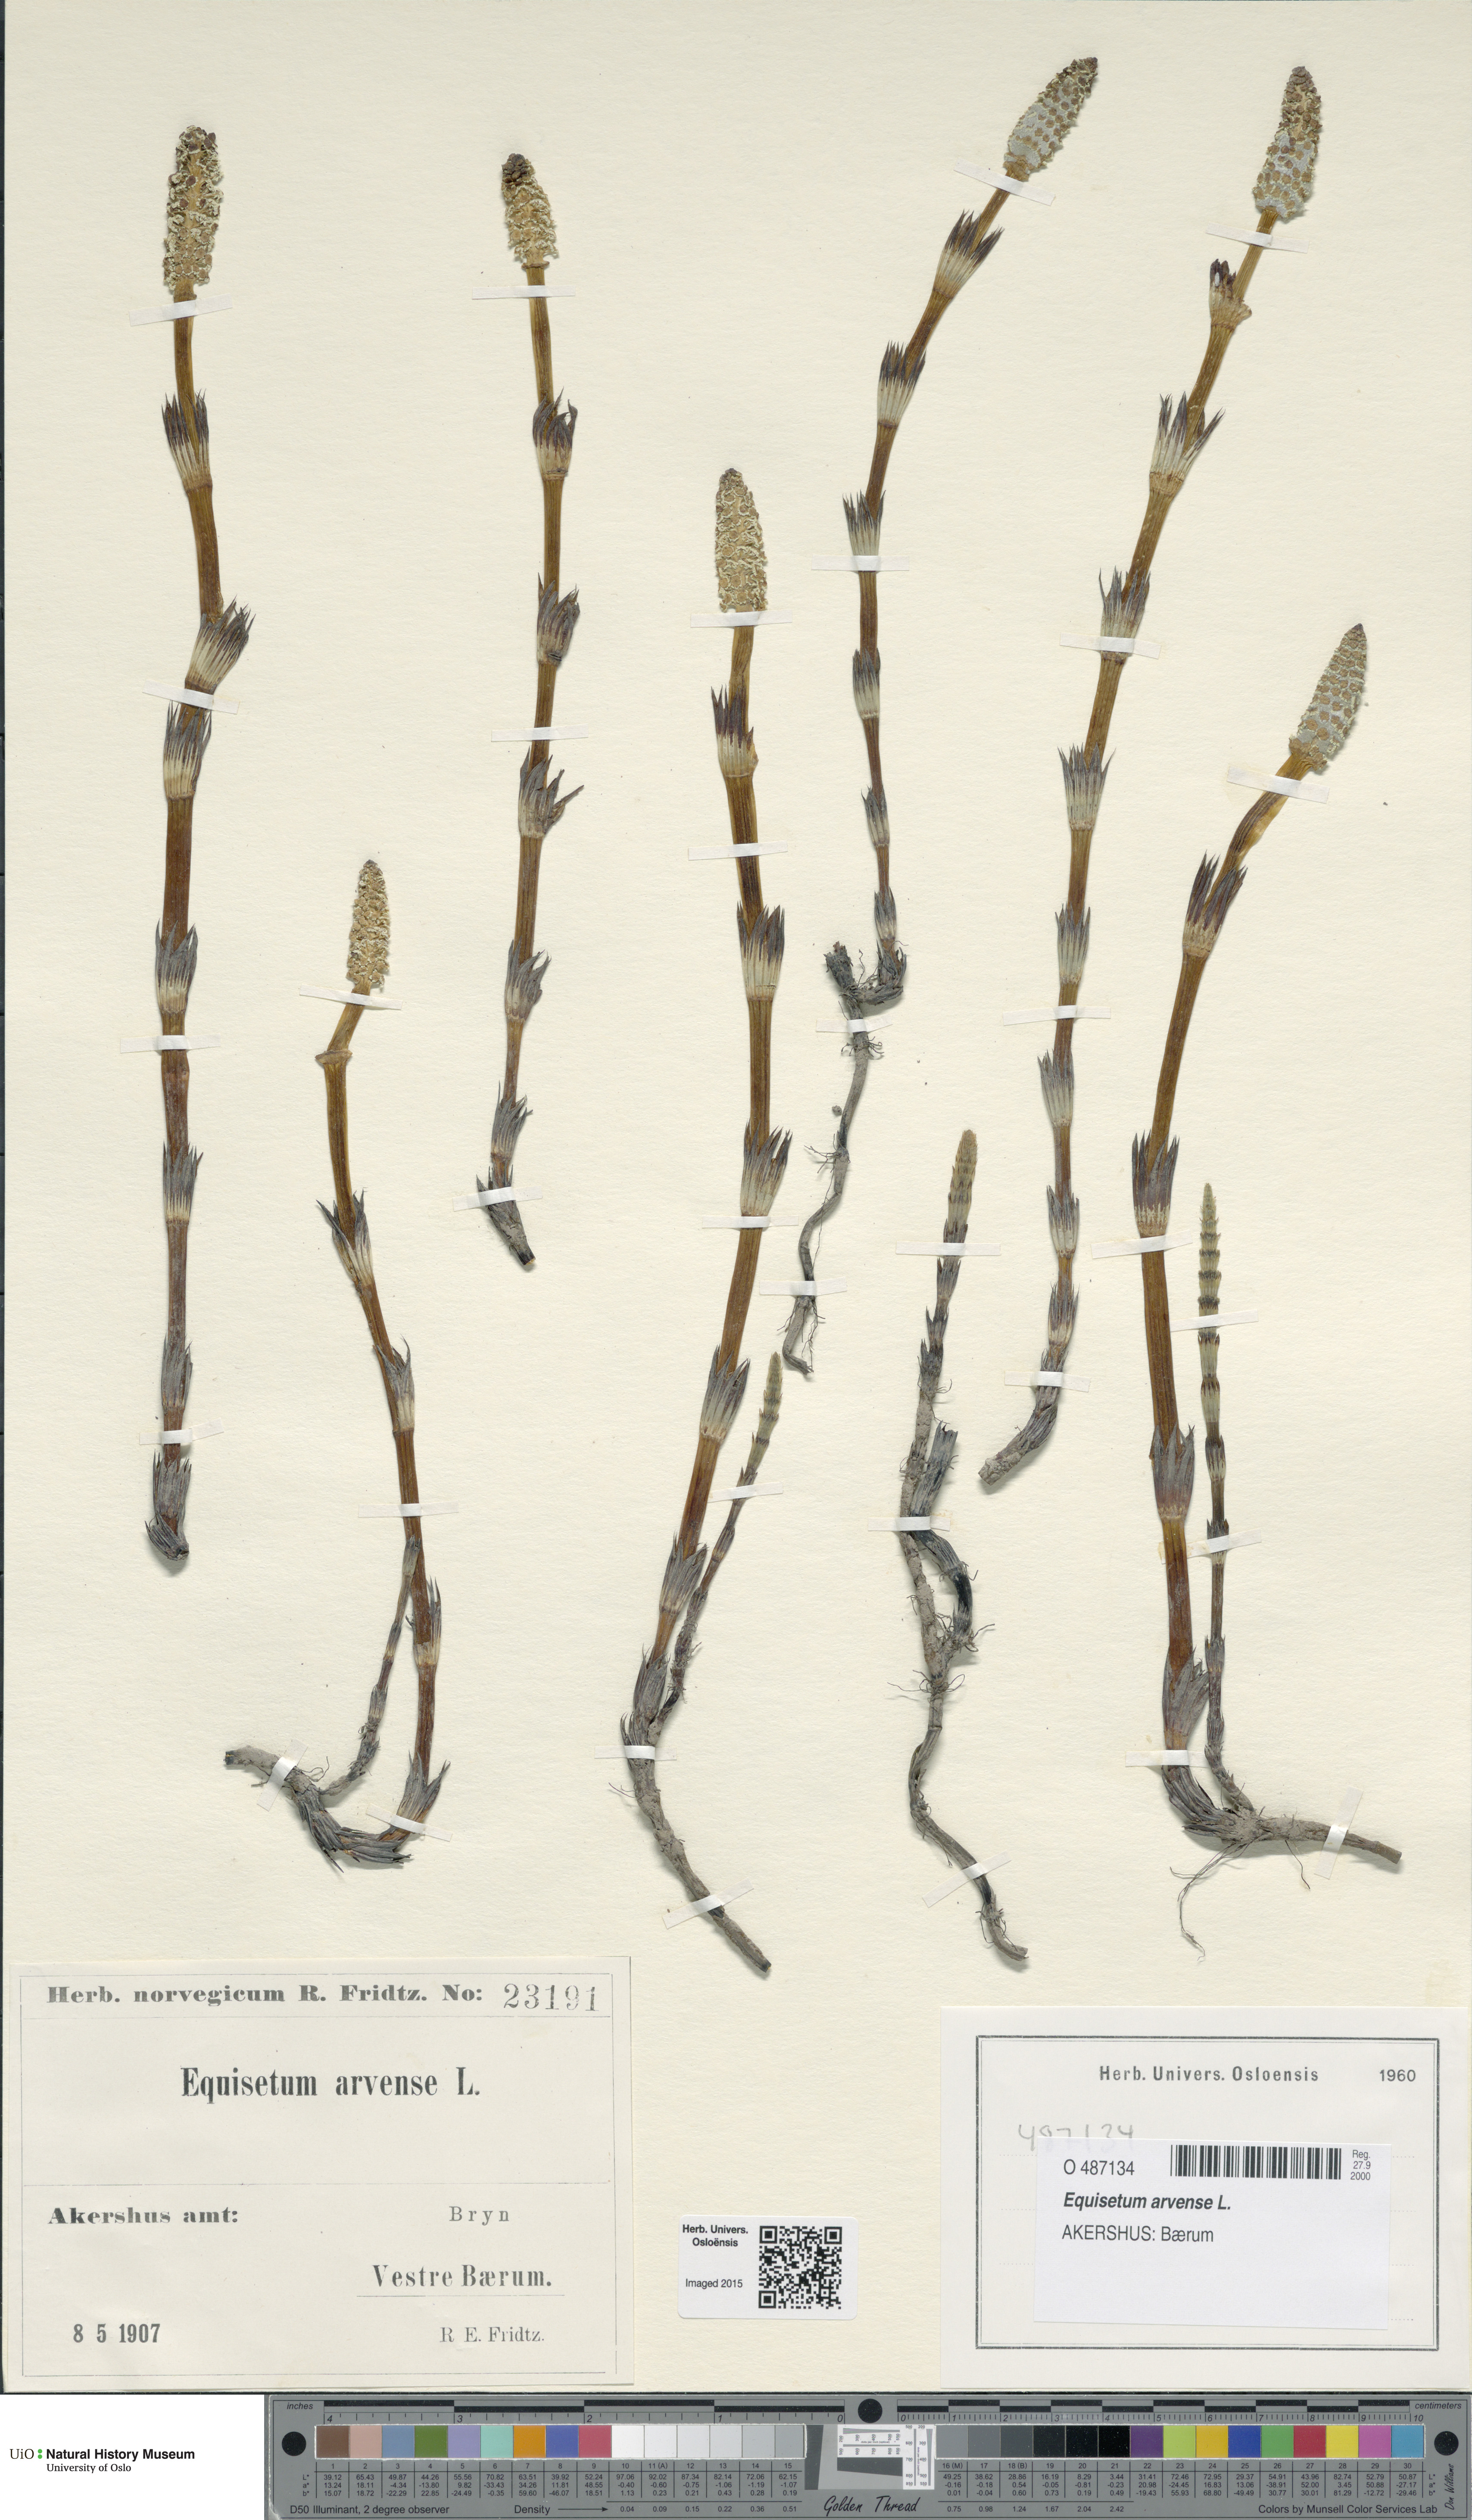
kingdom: Plantae
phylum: Tracheophyta
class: Polypodiopsida
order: Equisetales
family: Equisetaceae
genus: Equisetum
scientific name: Equisetum arvense
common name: Field horsetail
